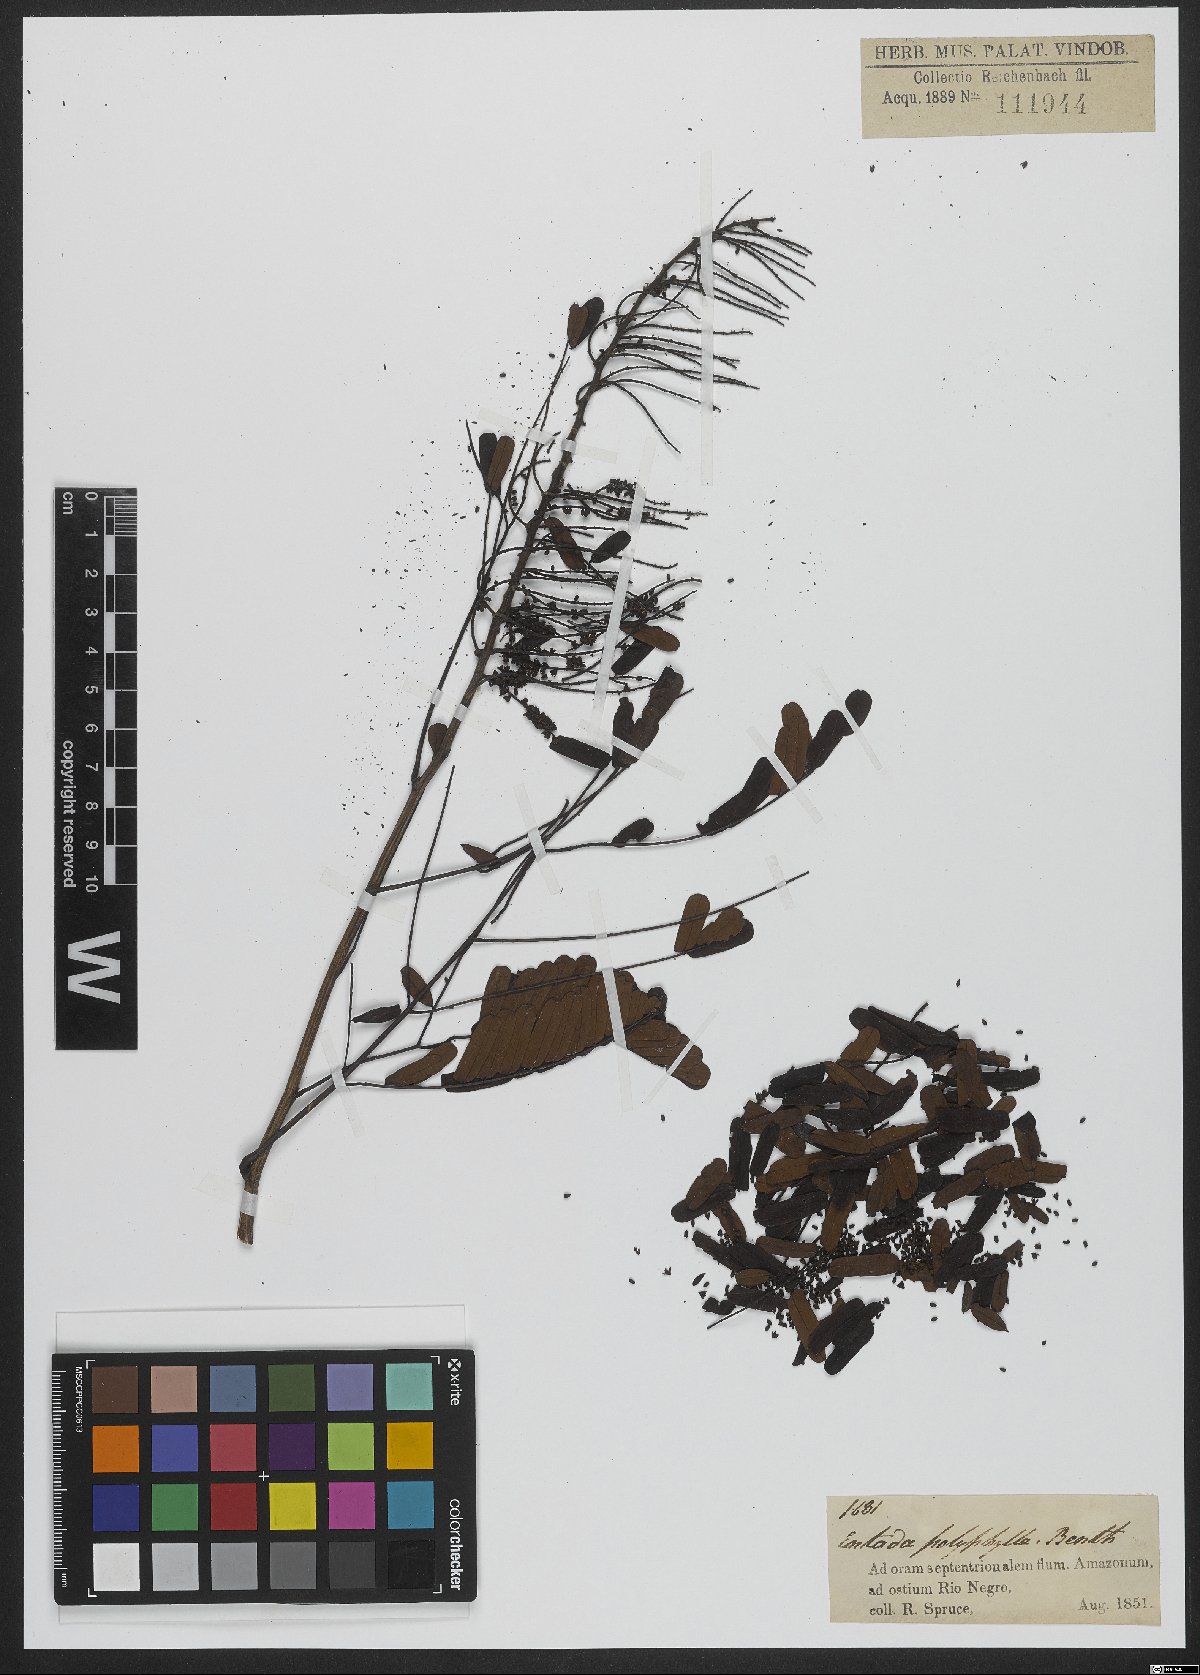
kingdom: Plantae
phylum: Tracheophyta
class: Magnoliopsida
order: Fabales
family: Fabaceae
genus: Entada
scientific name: Entada polyphylla
